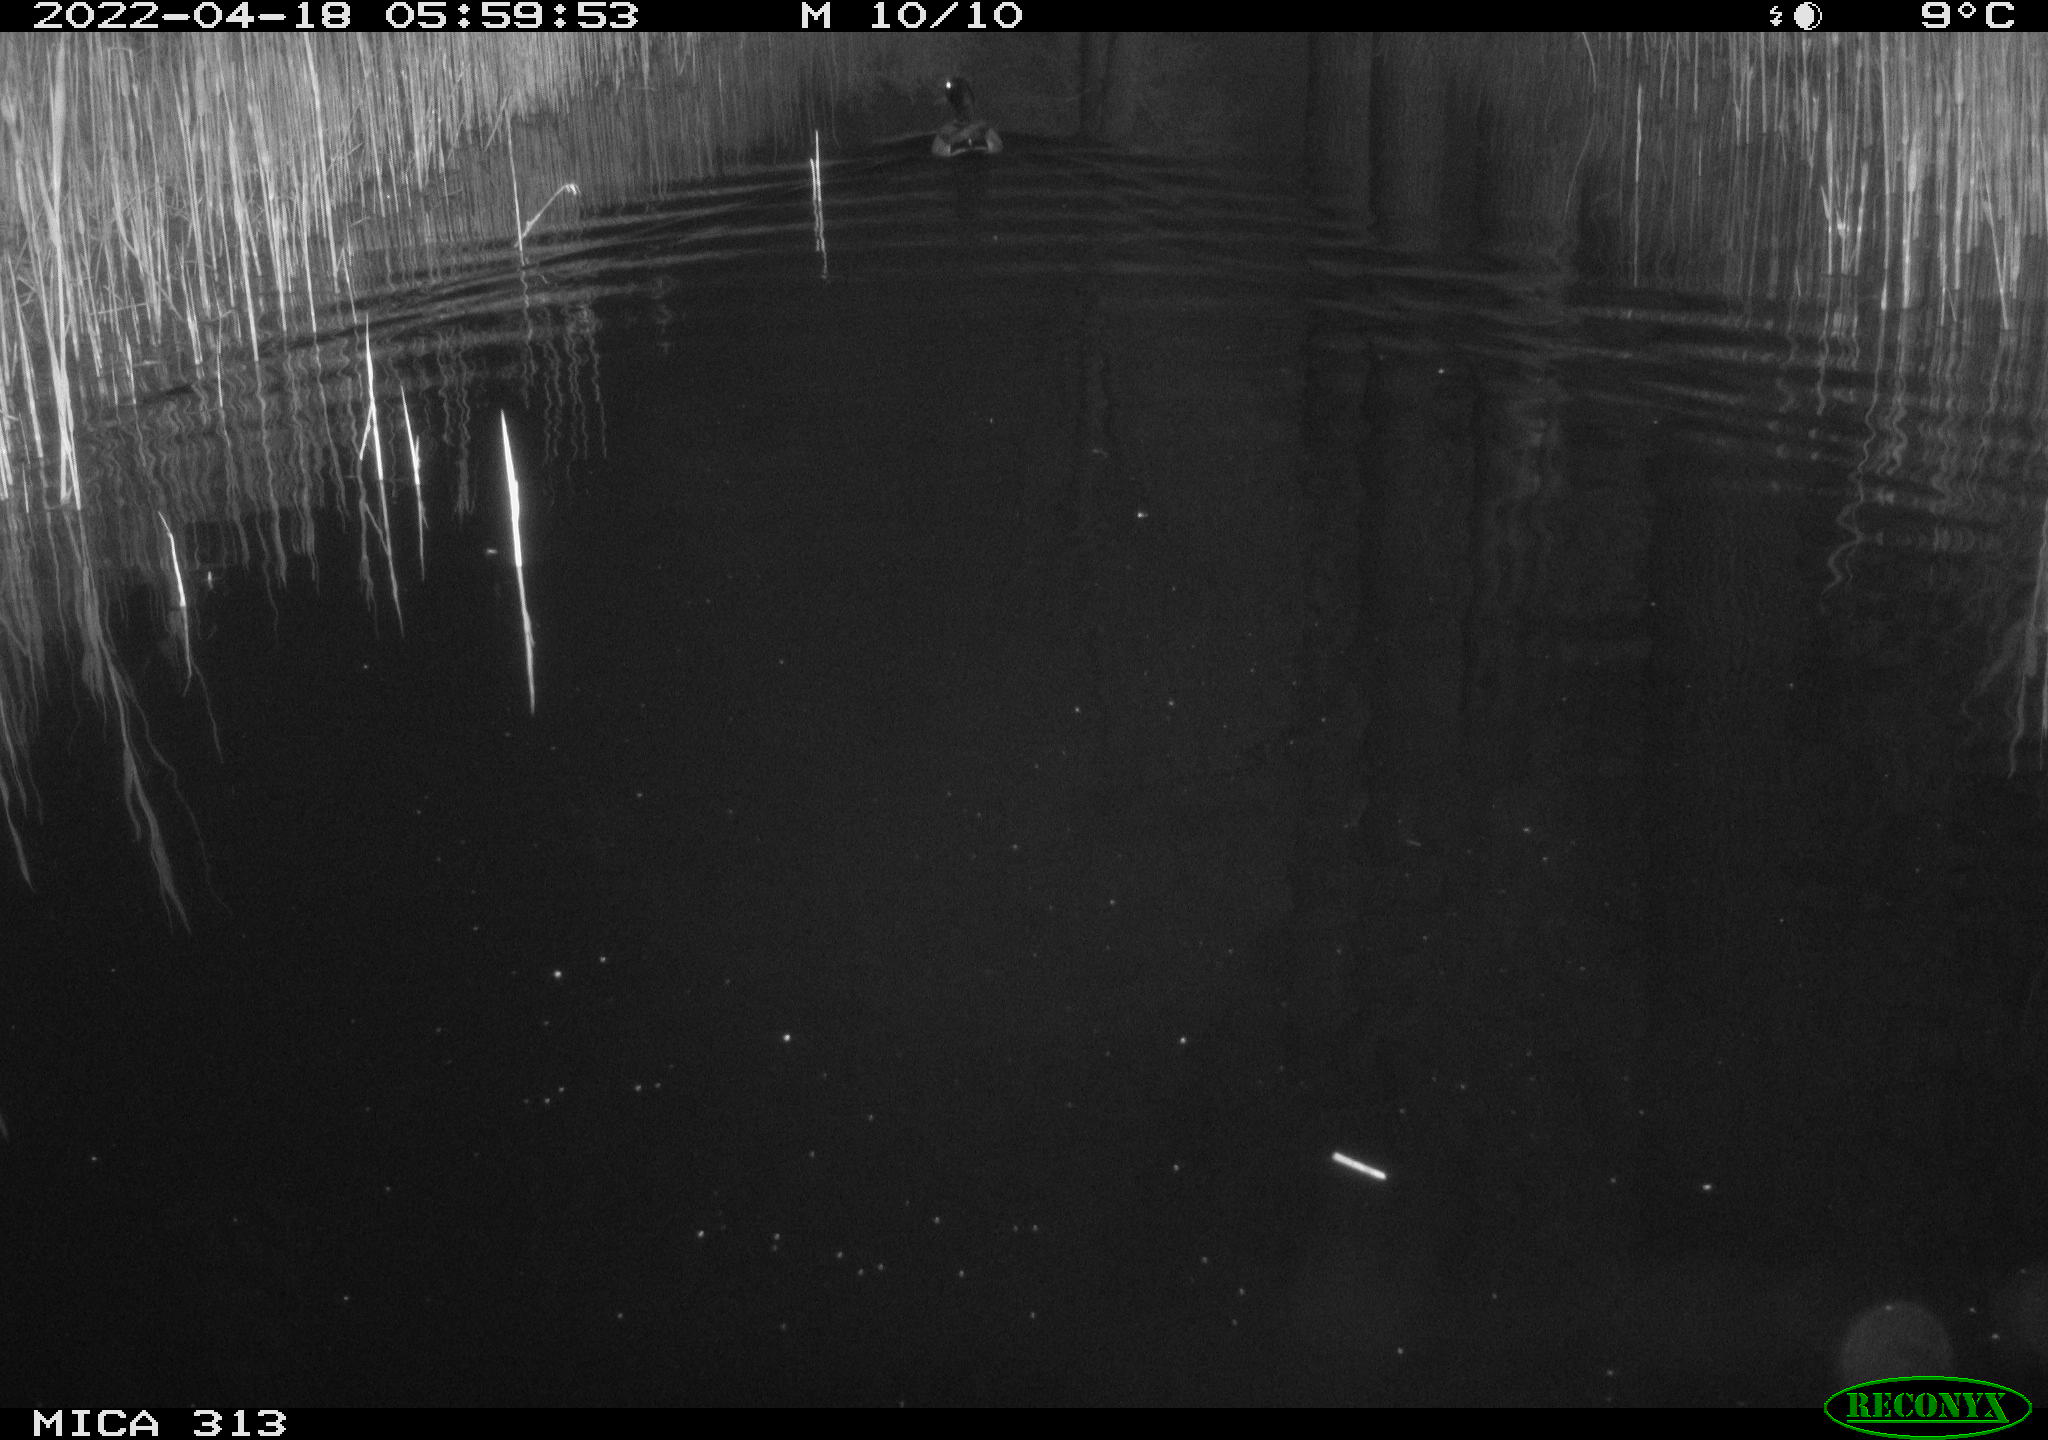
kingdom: Animalia
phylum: Chordata
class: Aves
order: Anseriformes
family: Anatidae
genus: Anas
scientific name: Anas platyrhynchos
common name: Mallard
